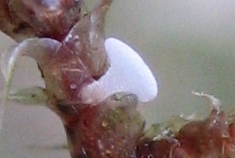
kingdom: Fungi
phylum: Ascomycota
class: Leotiomycetes
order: Helotiales
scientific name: Helotiales
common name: stilkskiveordenen
